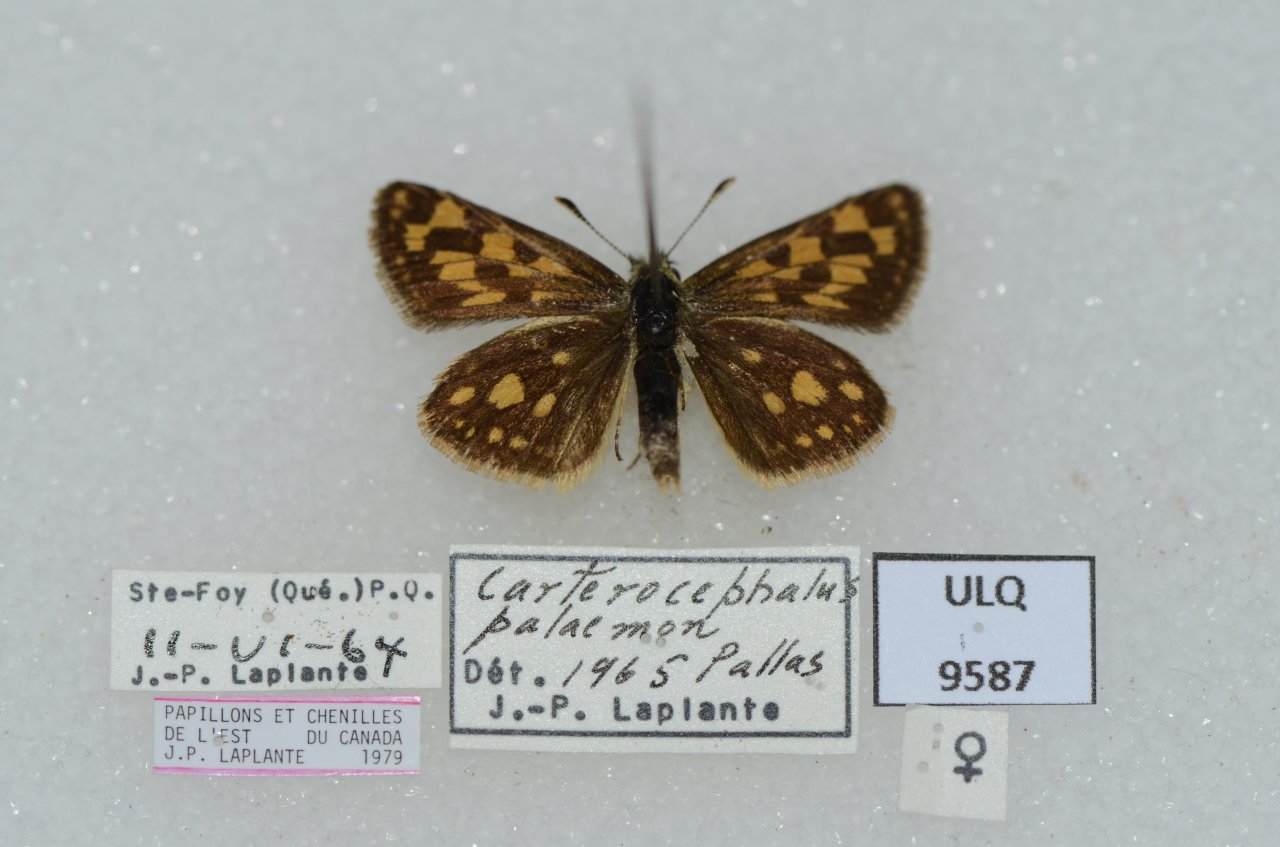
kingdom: Animalia
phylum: Arthropoda
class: Insecta
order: Lepidoptera
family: Hesperiidae
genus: Carterocephalus
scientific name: Carterocephalus palaemon
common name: Chequered Skipper
